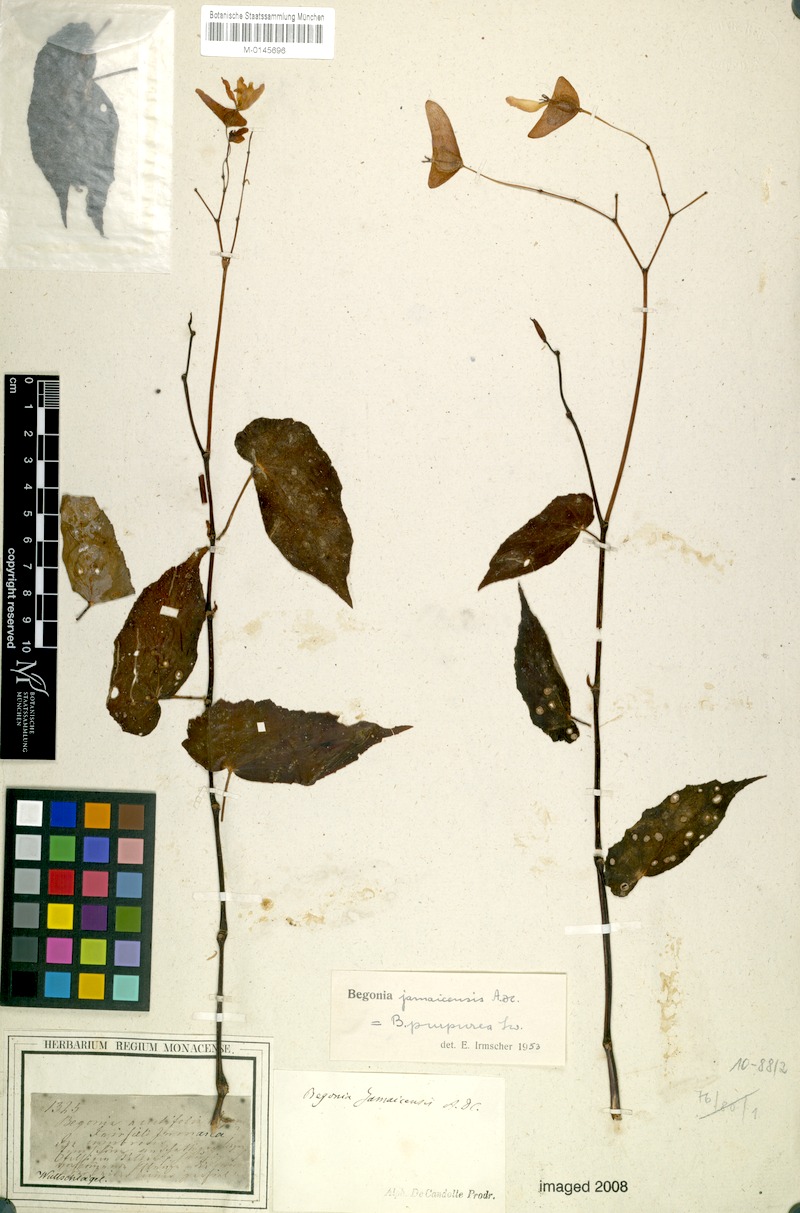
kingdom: Plantae
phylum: Tracheophyta
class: Magnoliopsida
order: Cucurbitales
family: Begoniaceae
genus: Begonia
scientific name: Begonia jamaicensis
